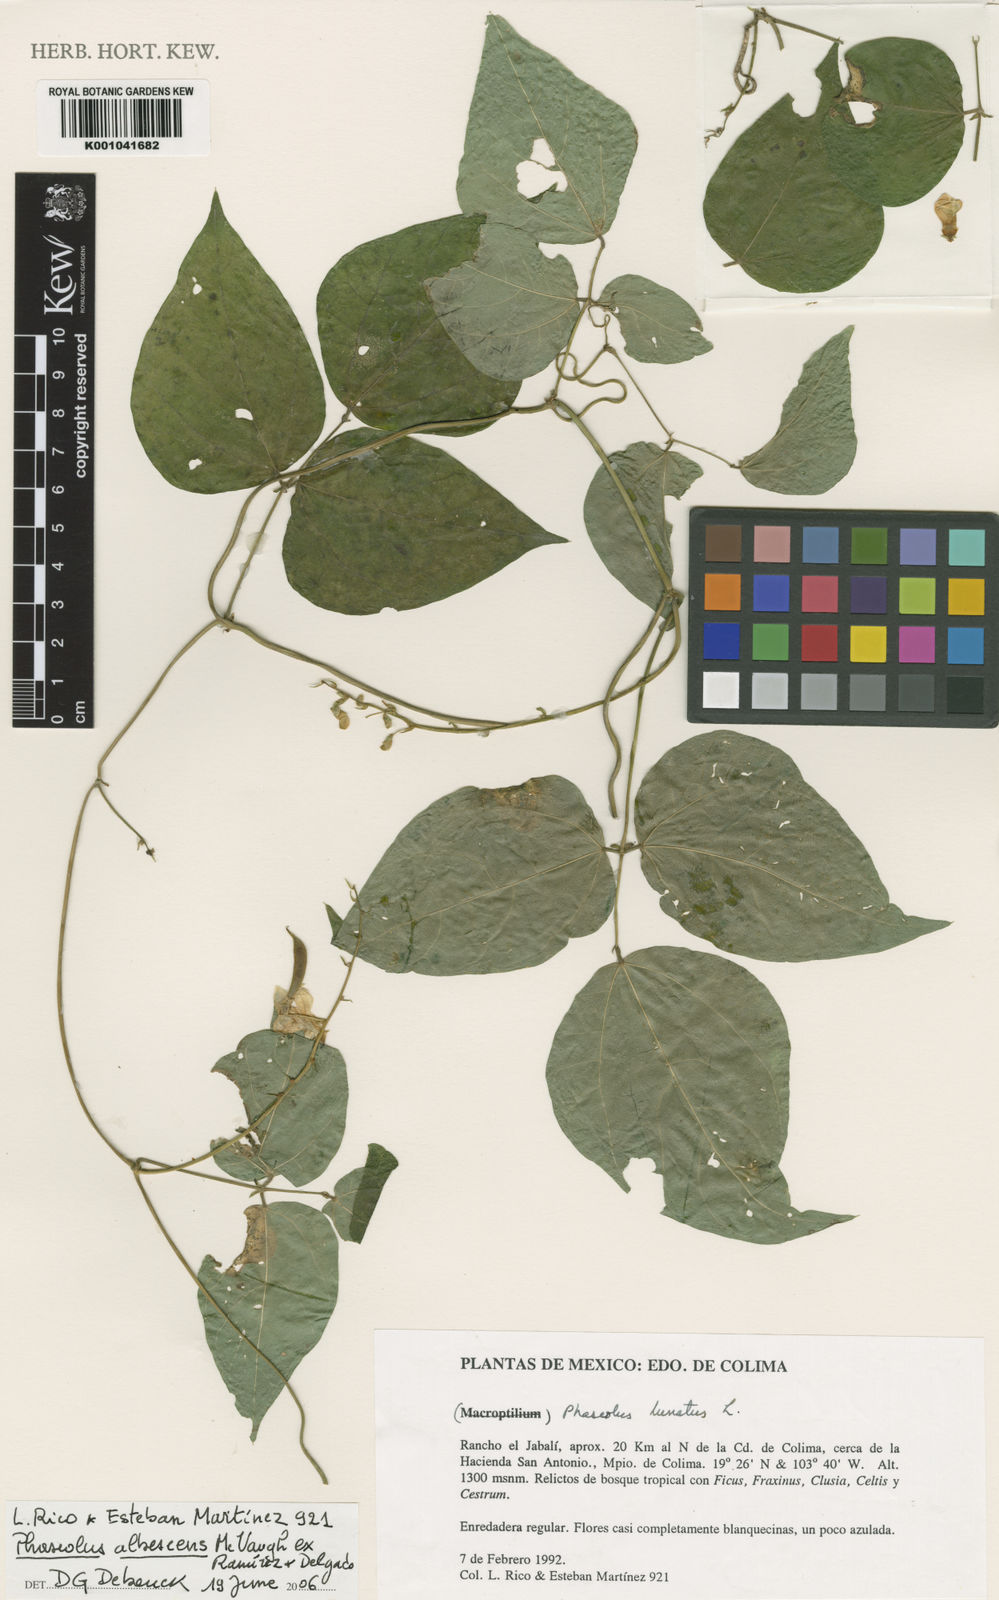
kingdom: Plantae
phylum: Tracheophyta
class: Magnoliopsida
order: Fabales
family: Fabaceae
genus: Phaseolus
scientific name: Phaseolus albescens
